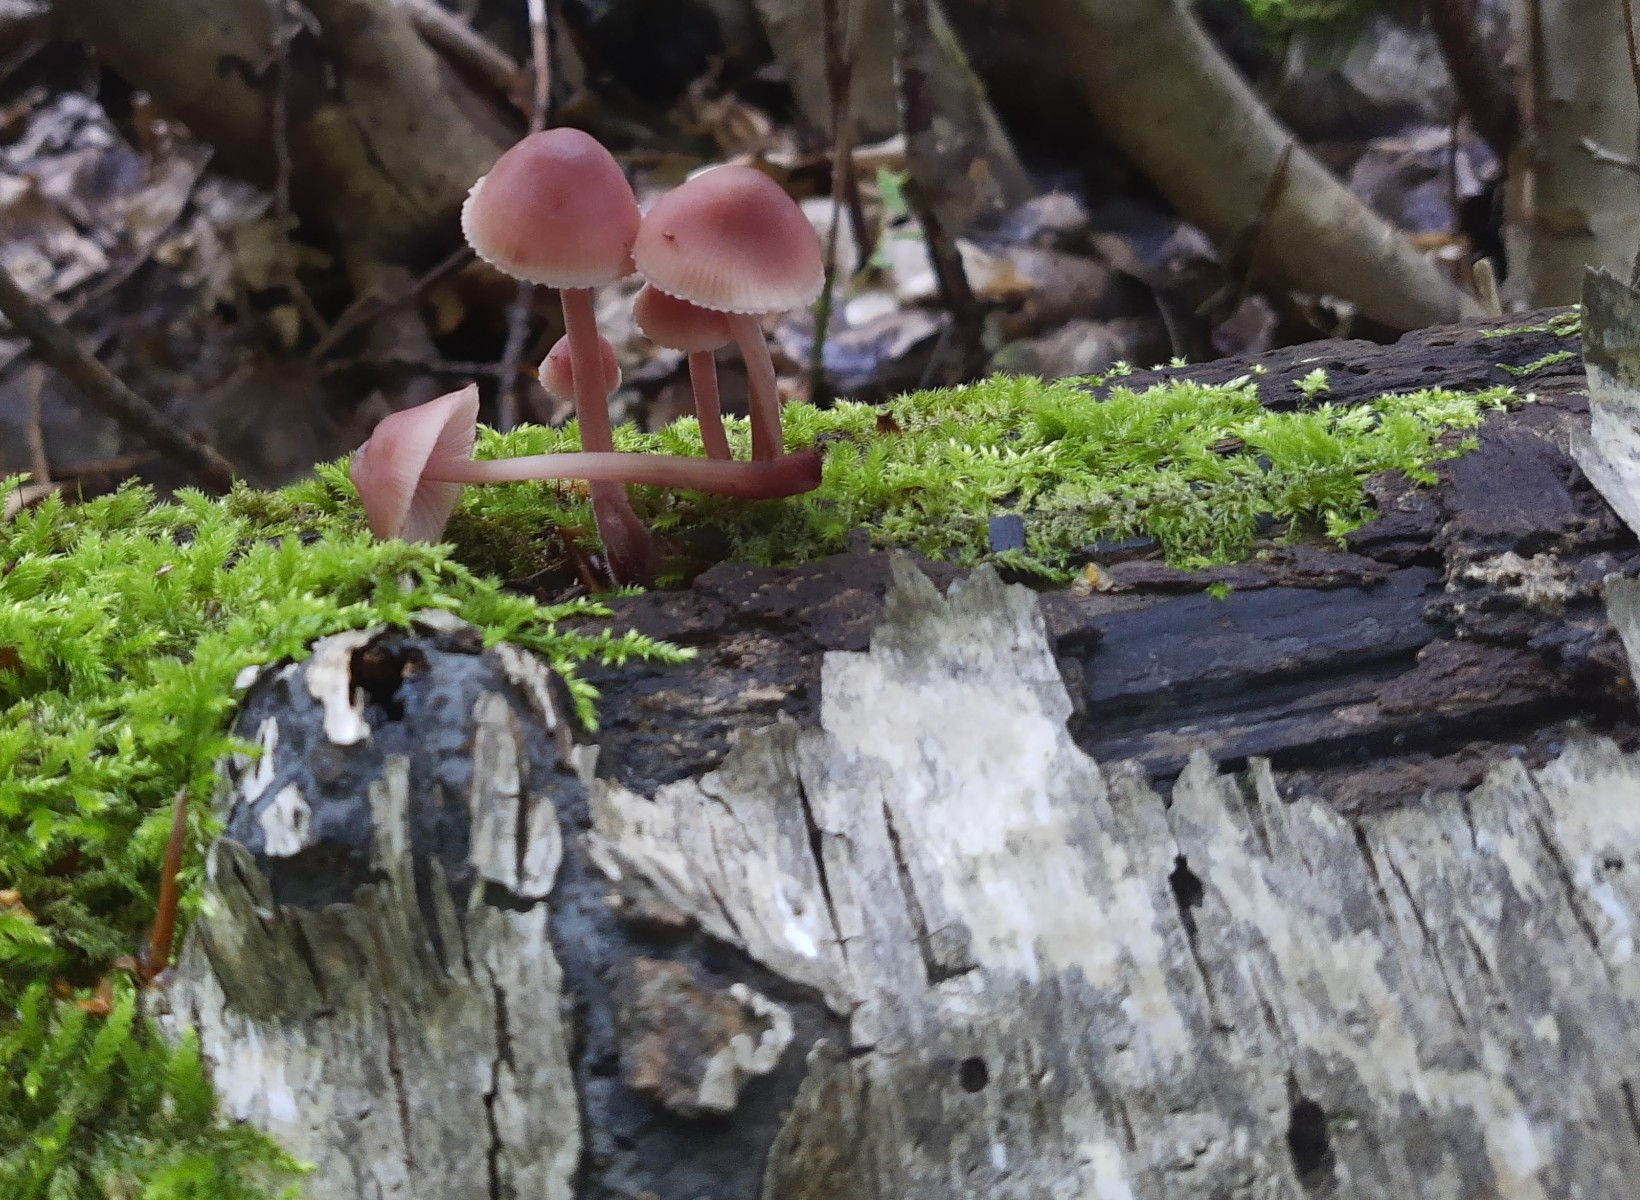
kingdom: Fungi
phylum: Basidiomycota
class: Agaricomycetes
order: Agaricales
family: Mycenaceae
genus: Mycena
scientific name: Mycena haematopus
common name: blødende huesvamp
